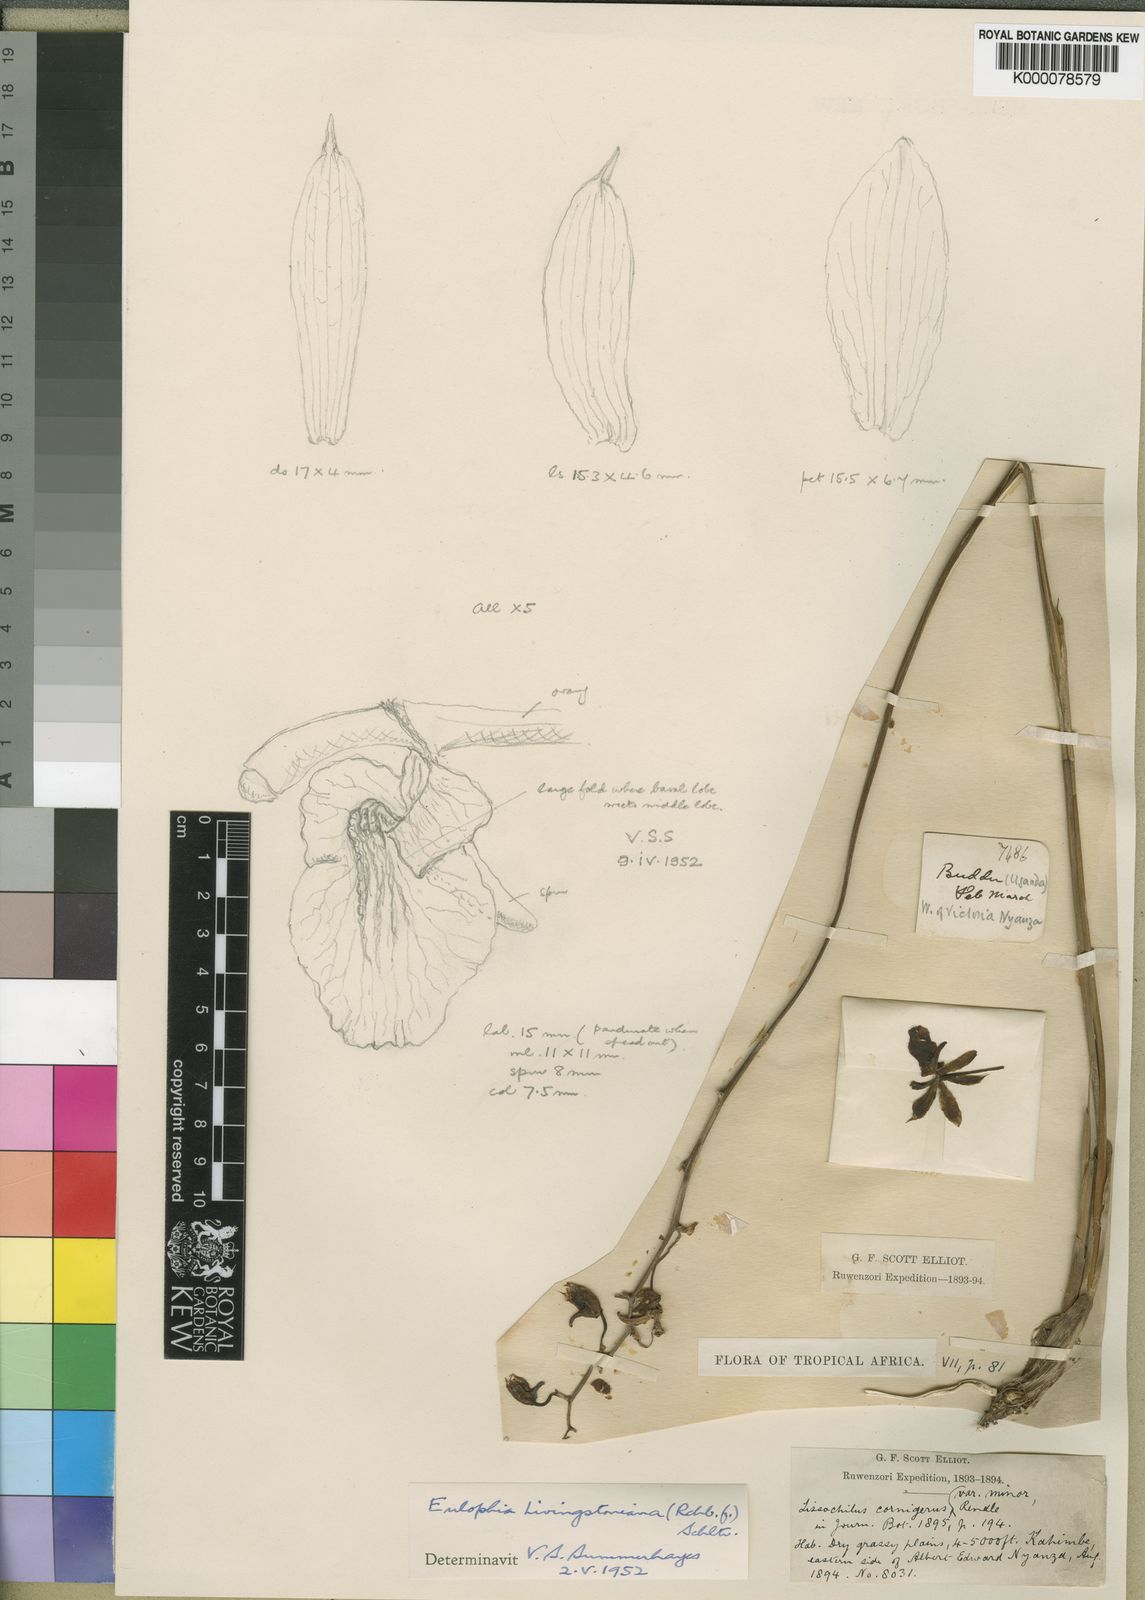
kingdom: Plantae
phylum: Tracheophyta
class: Liliopsida
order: Asparagales
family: Orchidaceae
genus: Eulophia
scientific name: Eulophia
